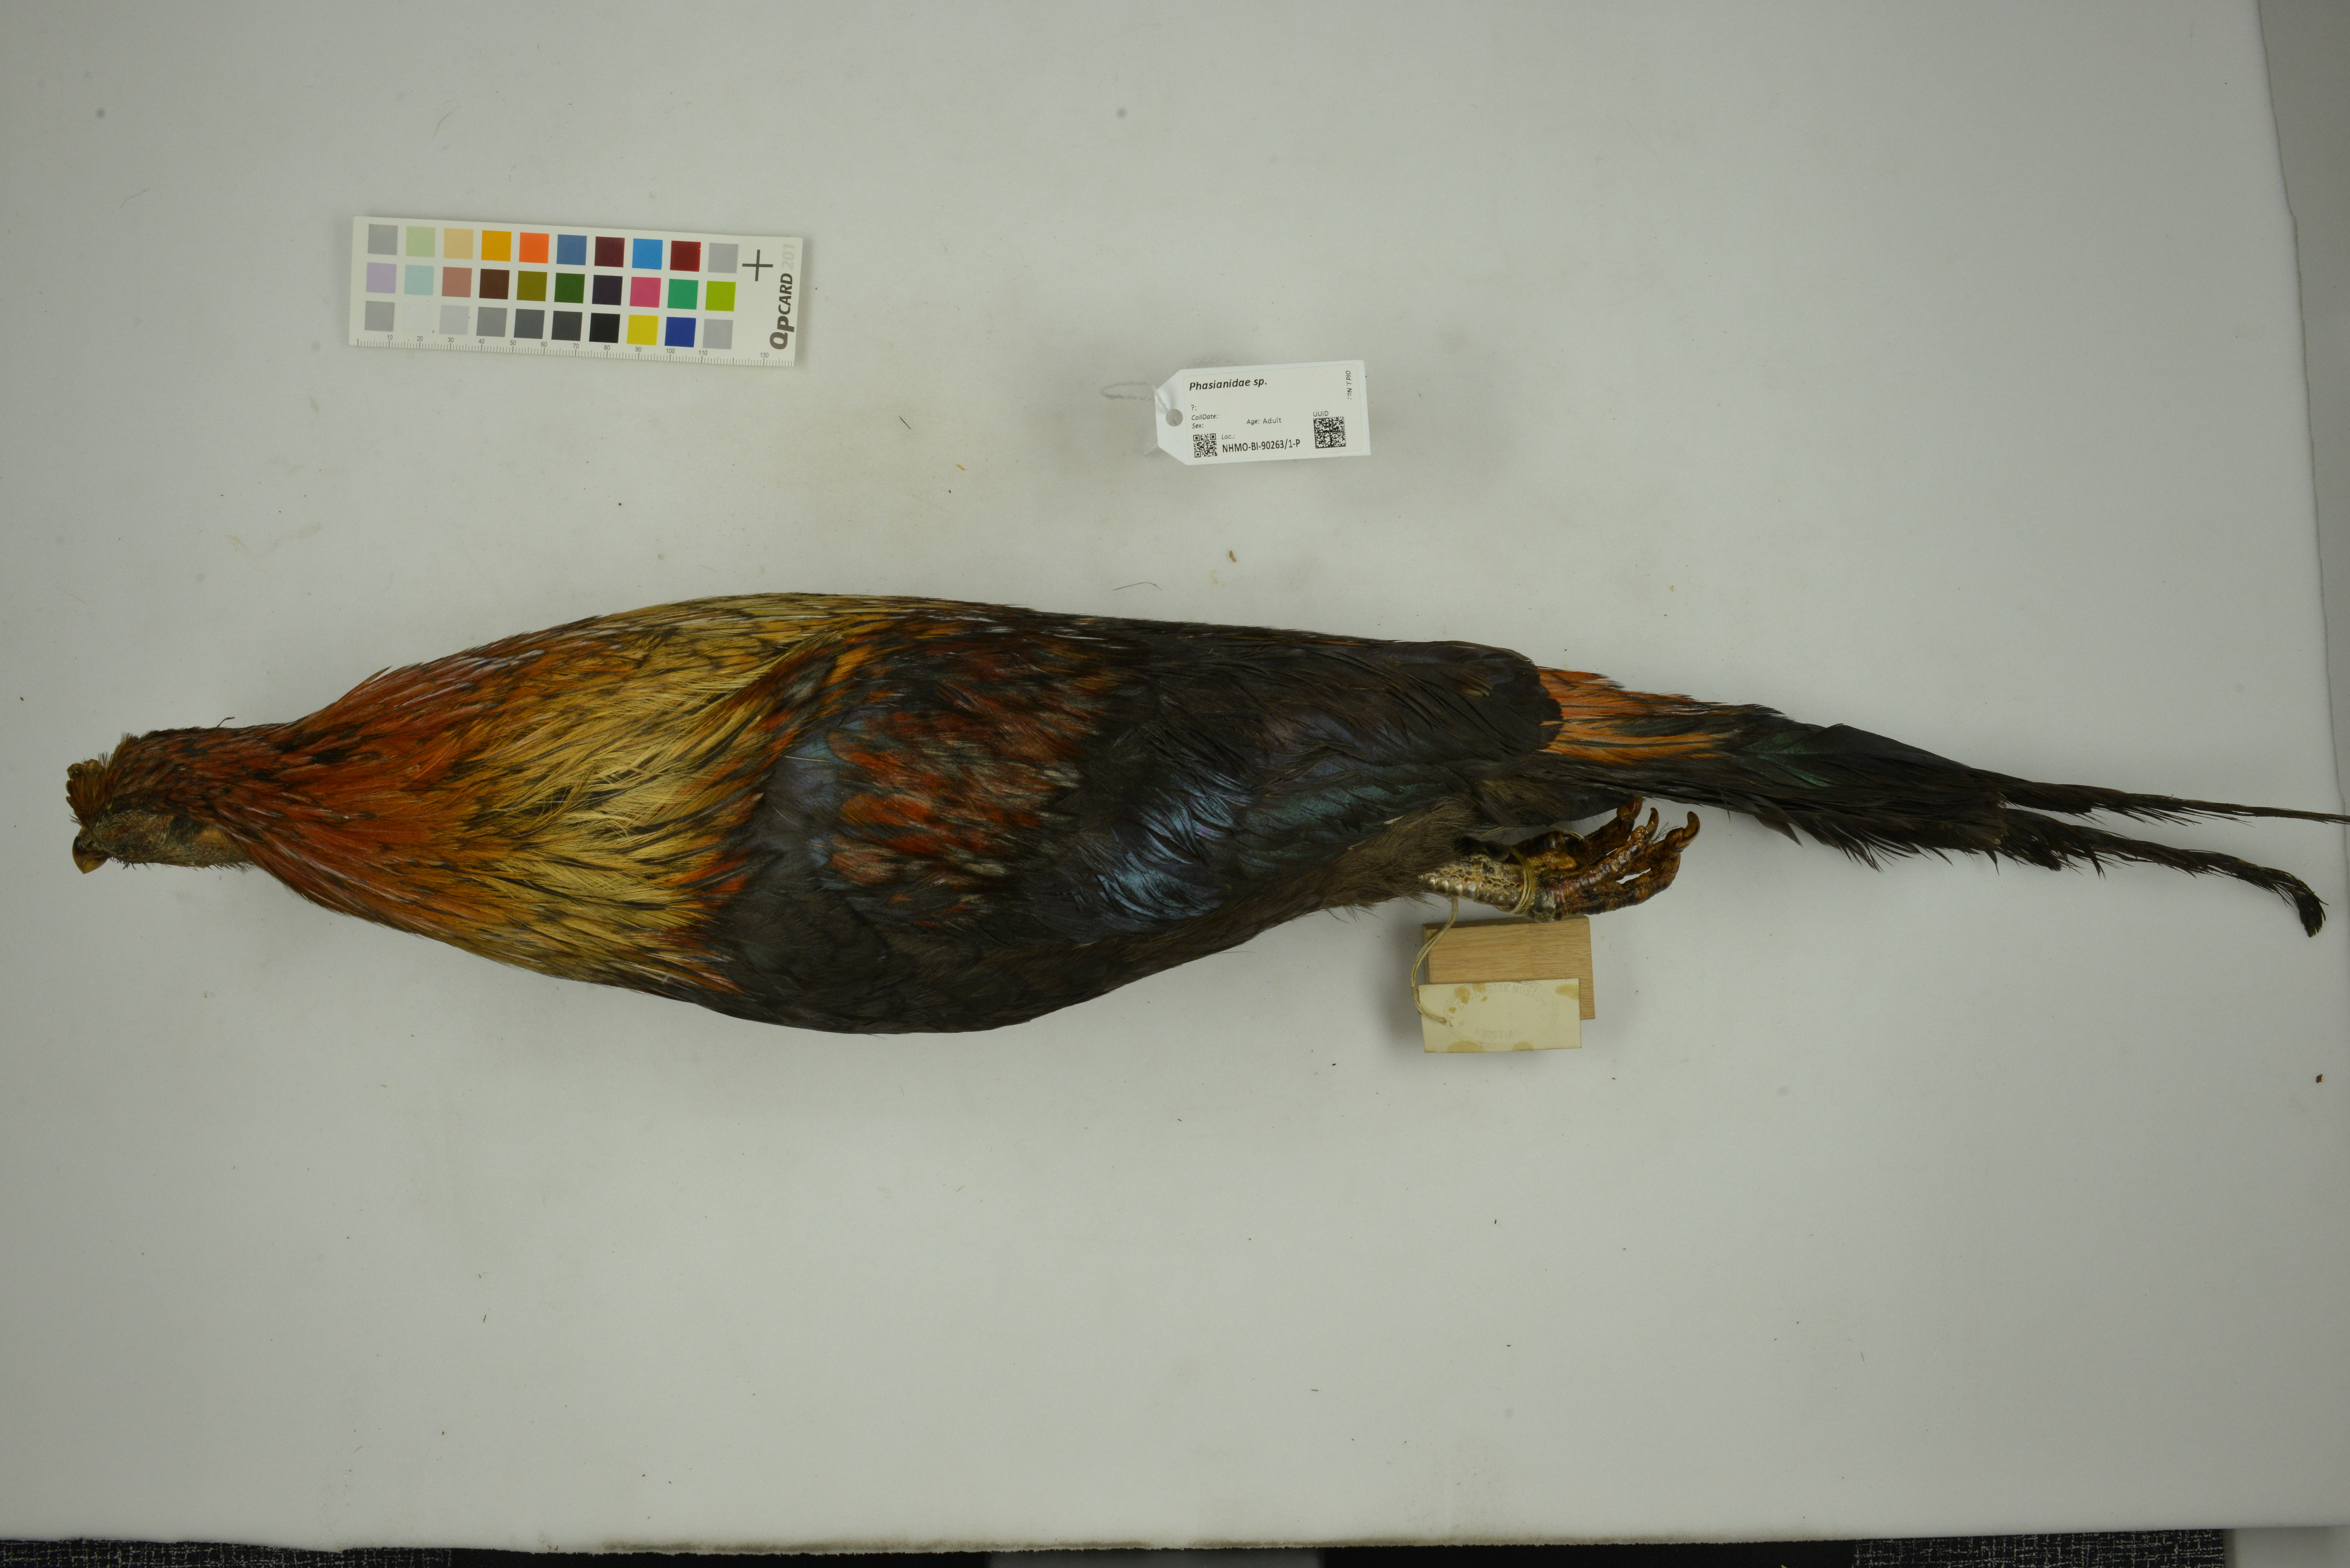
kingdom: Animalia
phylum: Chordata
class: Aves
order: Galliformes
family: Phasianidae
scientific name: Phasianidae
